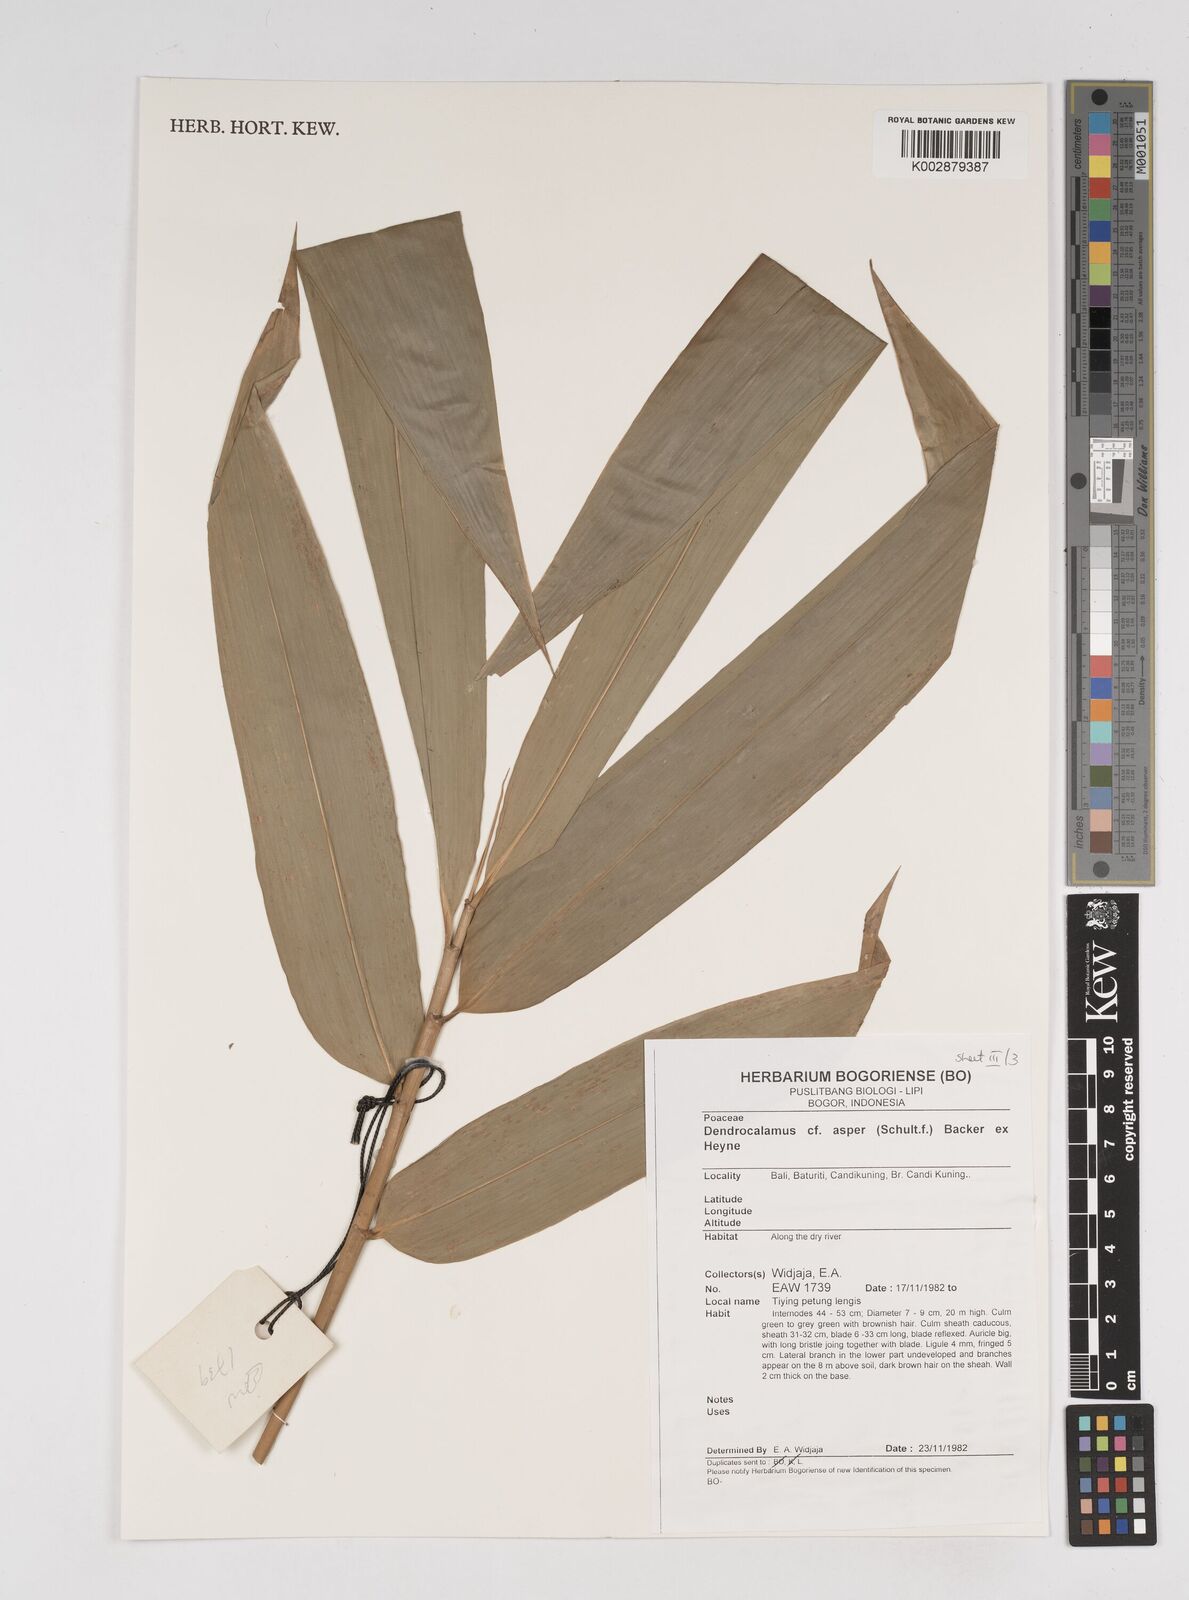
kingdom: Plantae
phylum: Tracheophyta
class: Liliopsida
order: Poales
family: Poaceae
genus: Dendrocalamus
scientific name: Dendrocalamus asper
